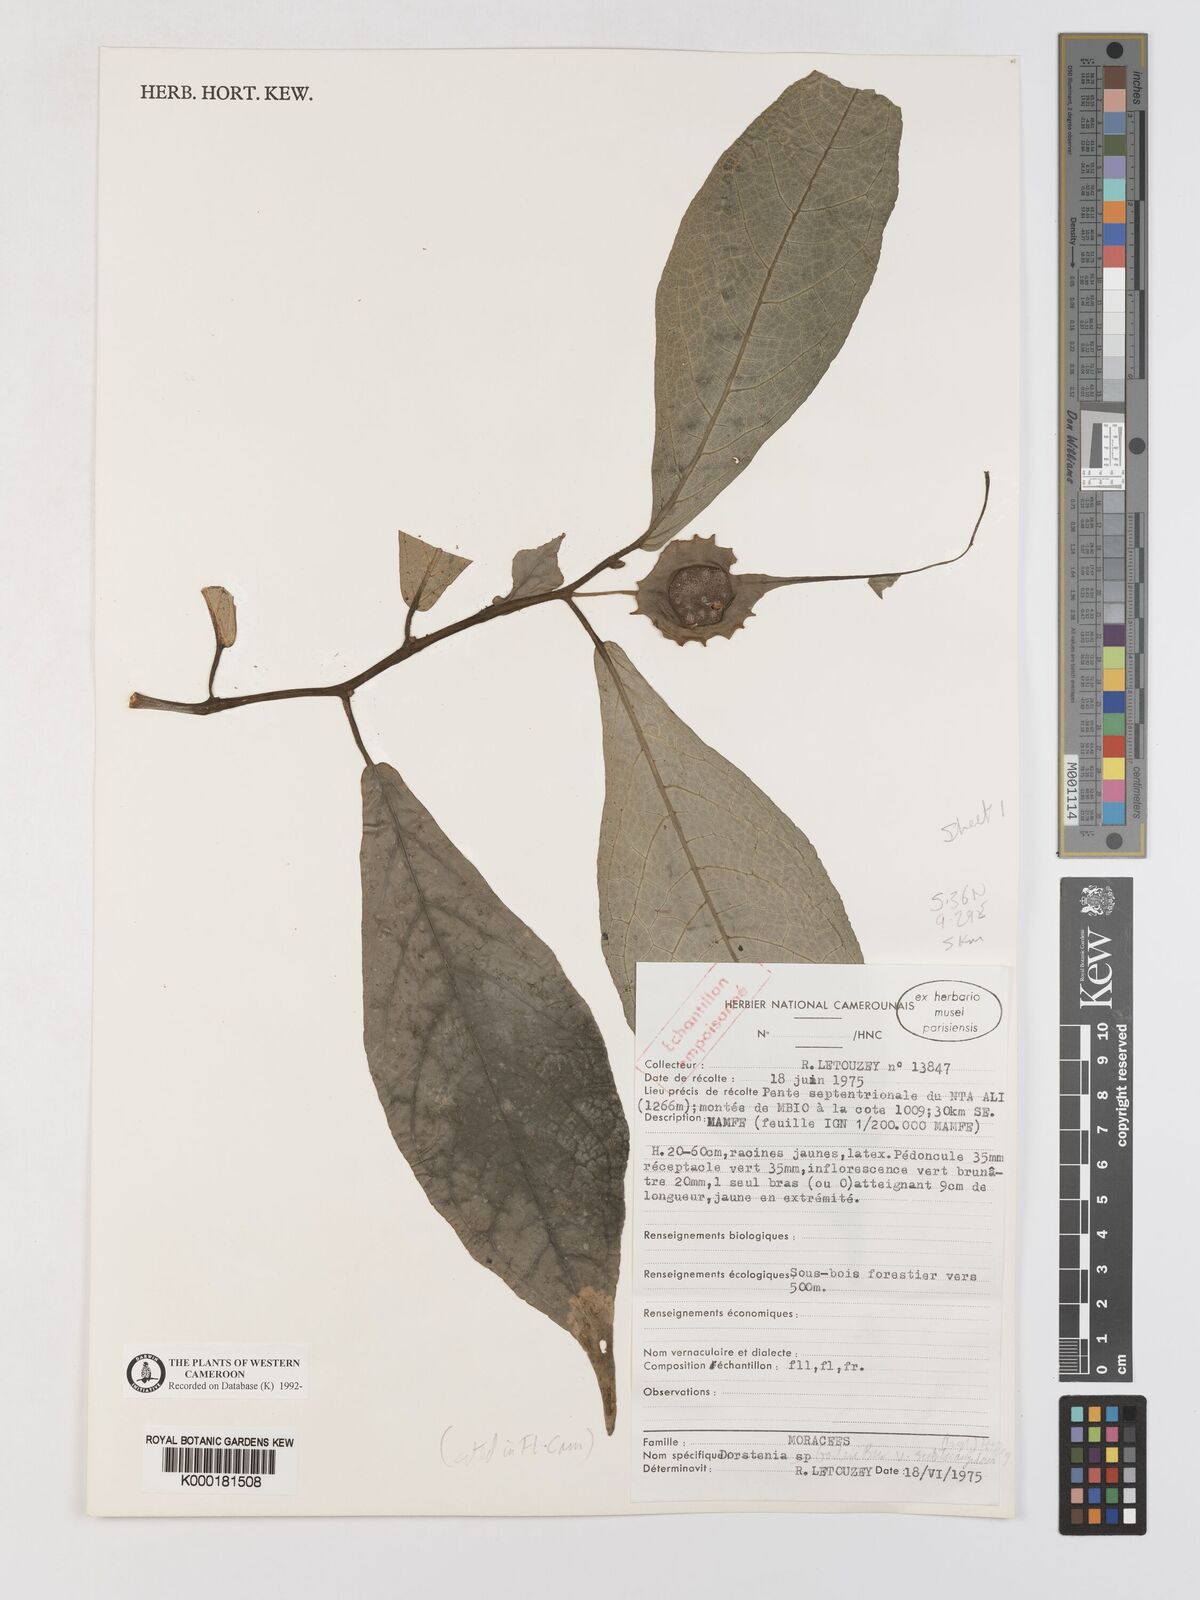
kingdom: Plantae
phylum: Tracheophyta
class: Magnoliopsida
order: Rosales
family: Moraceae
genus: Dorstenia
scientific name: Dorstenia barteri
